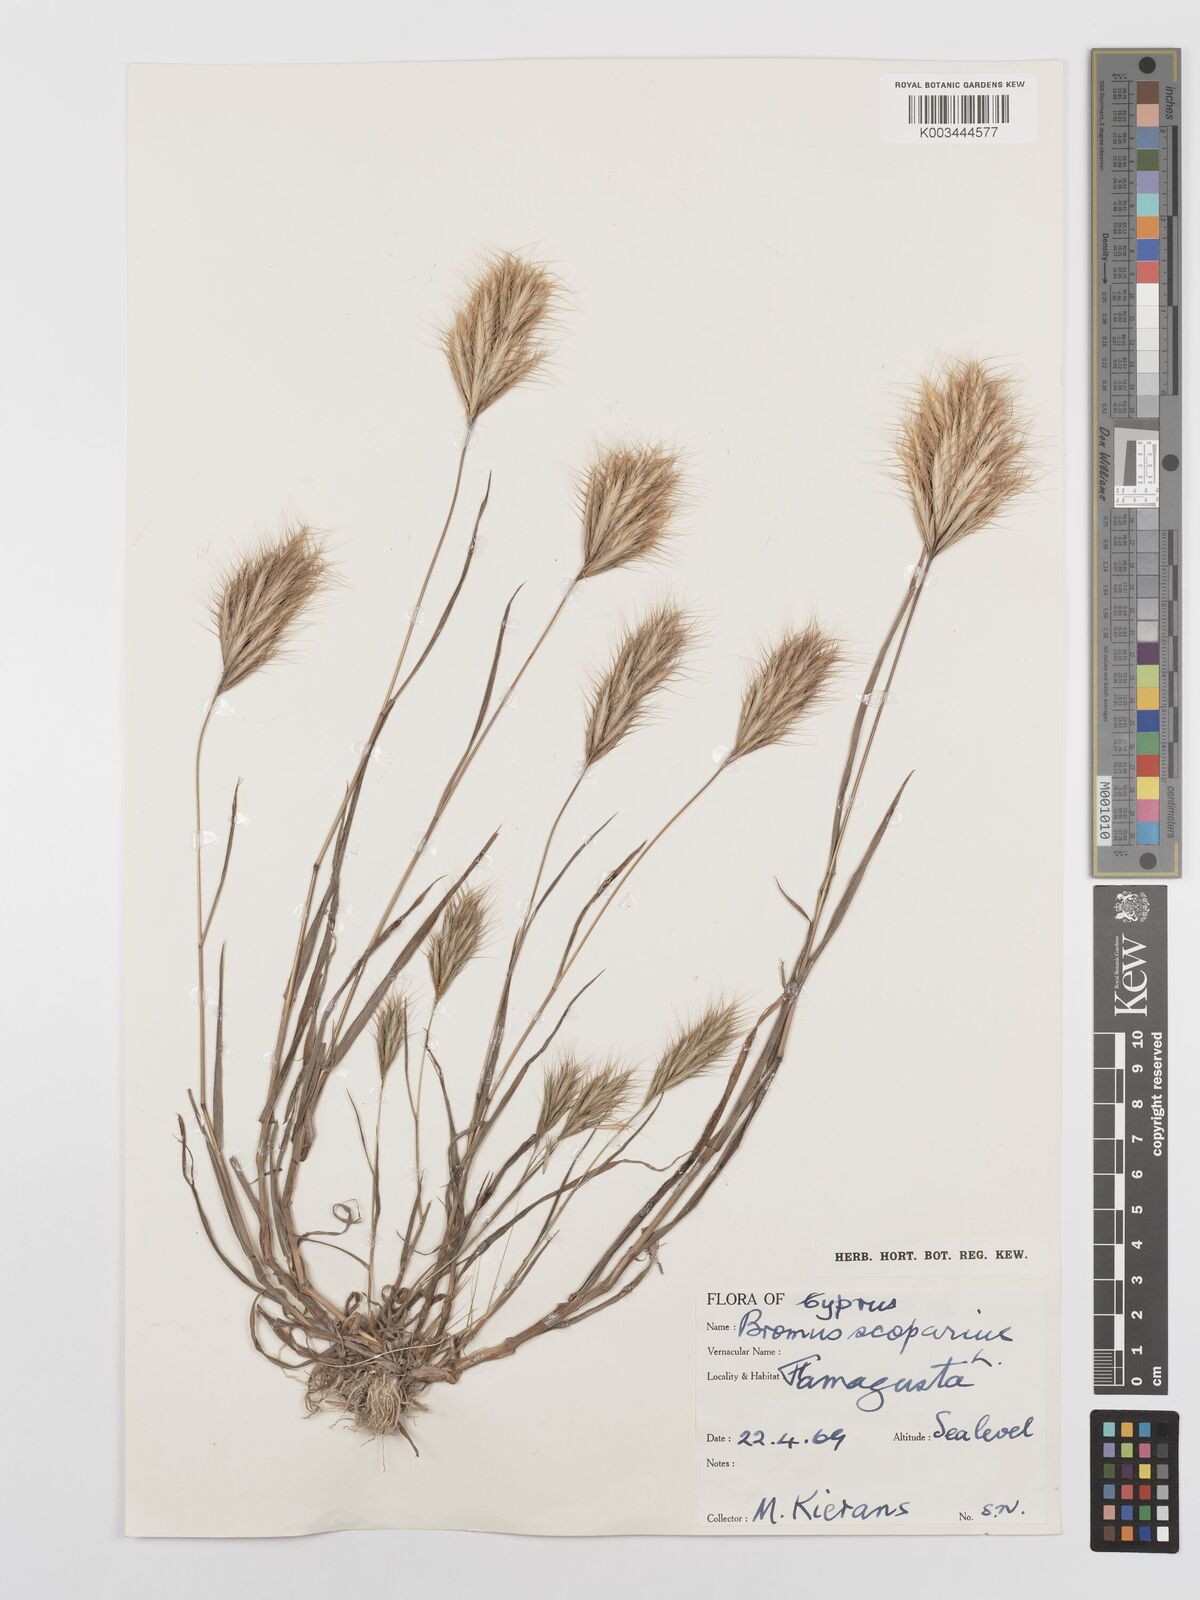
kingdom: Plantae
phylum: Tracheophyta
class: Liliopsida
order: Poales
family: Poaceae
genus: Bromus
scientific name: Bromus scoparius
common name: Broom brome
